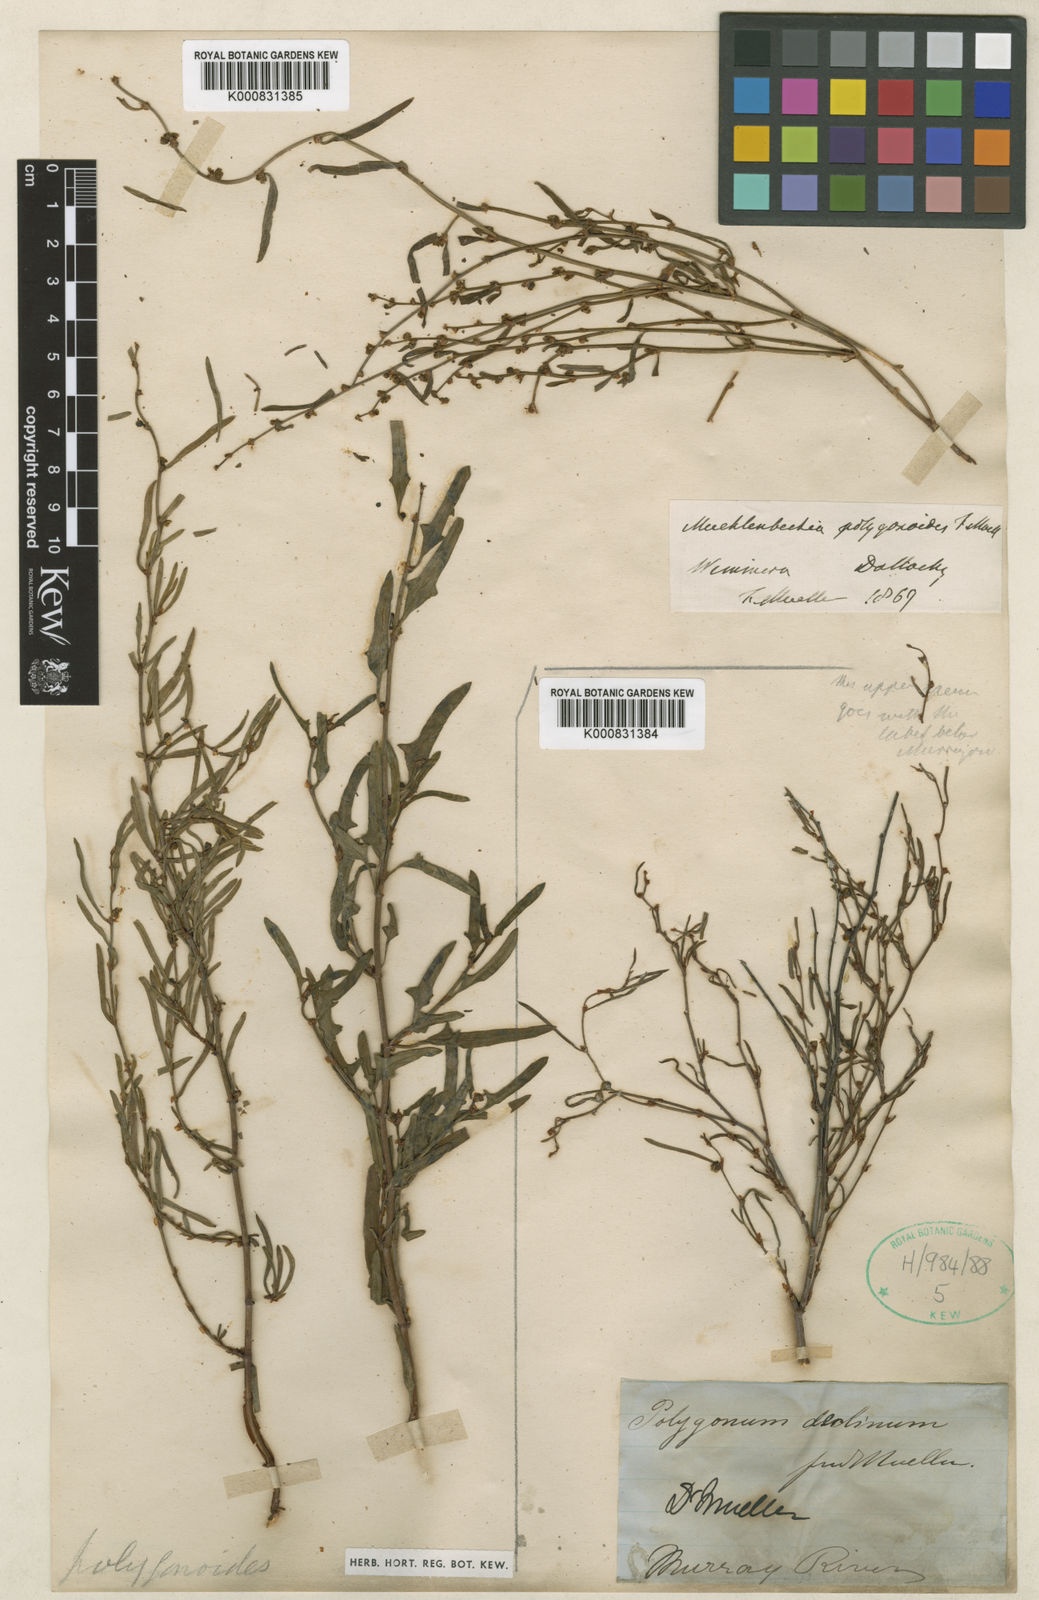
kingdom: Plantae
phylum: Tracheophyta
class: Magnoliopsida
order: Caryophyllales
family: Polygonaceae
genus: Muehlenbeckia
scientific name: Muehlenbeckia diclina
